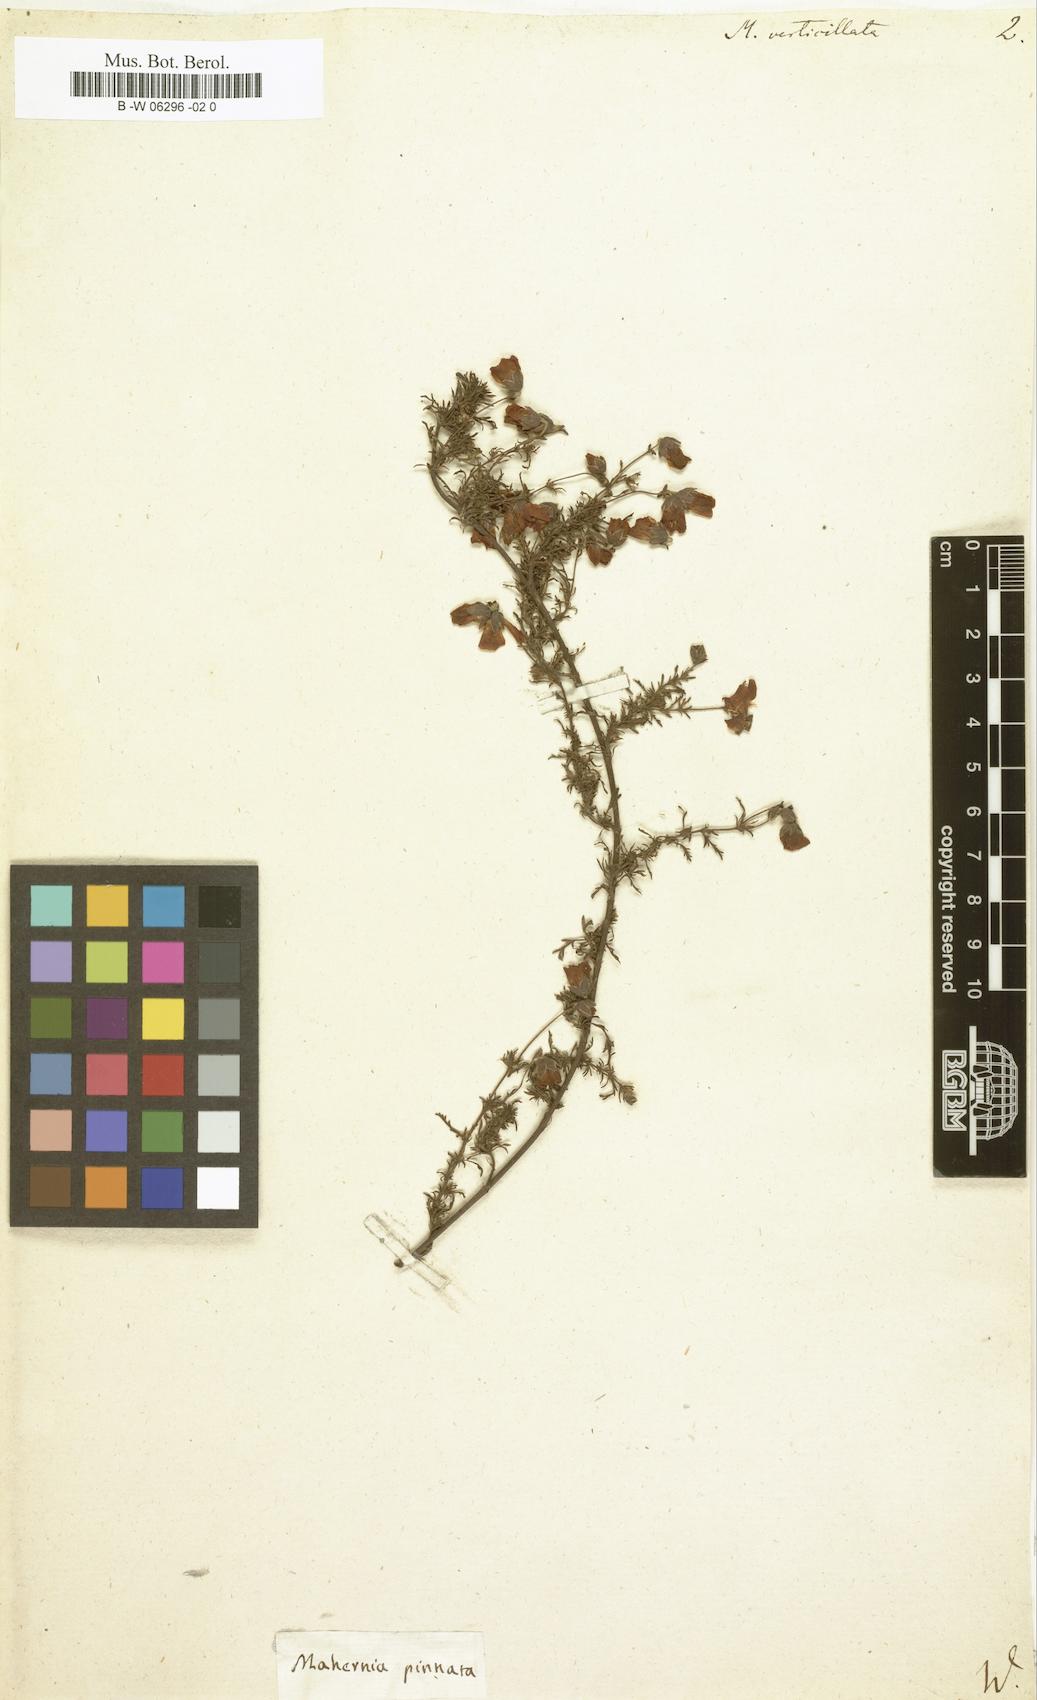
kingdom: Plantae
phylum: Tracheophyta
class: Magnoliopsida
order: Malvales
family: Malvaceae
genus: Hermannia
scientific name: Hermannia pinnata
